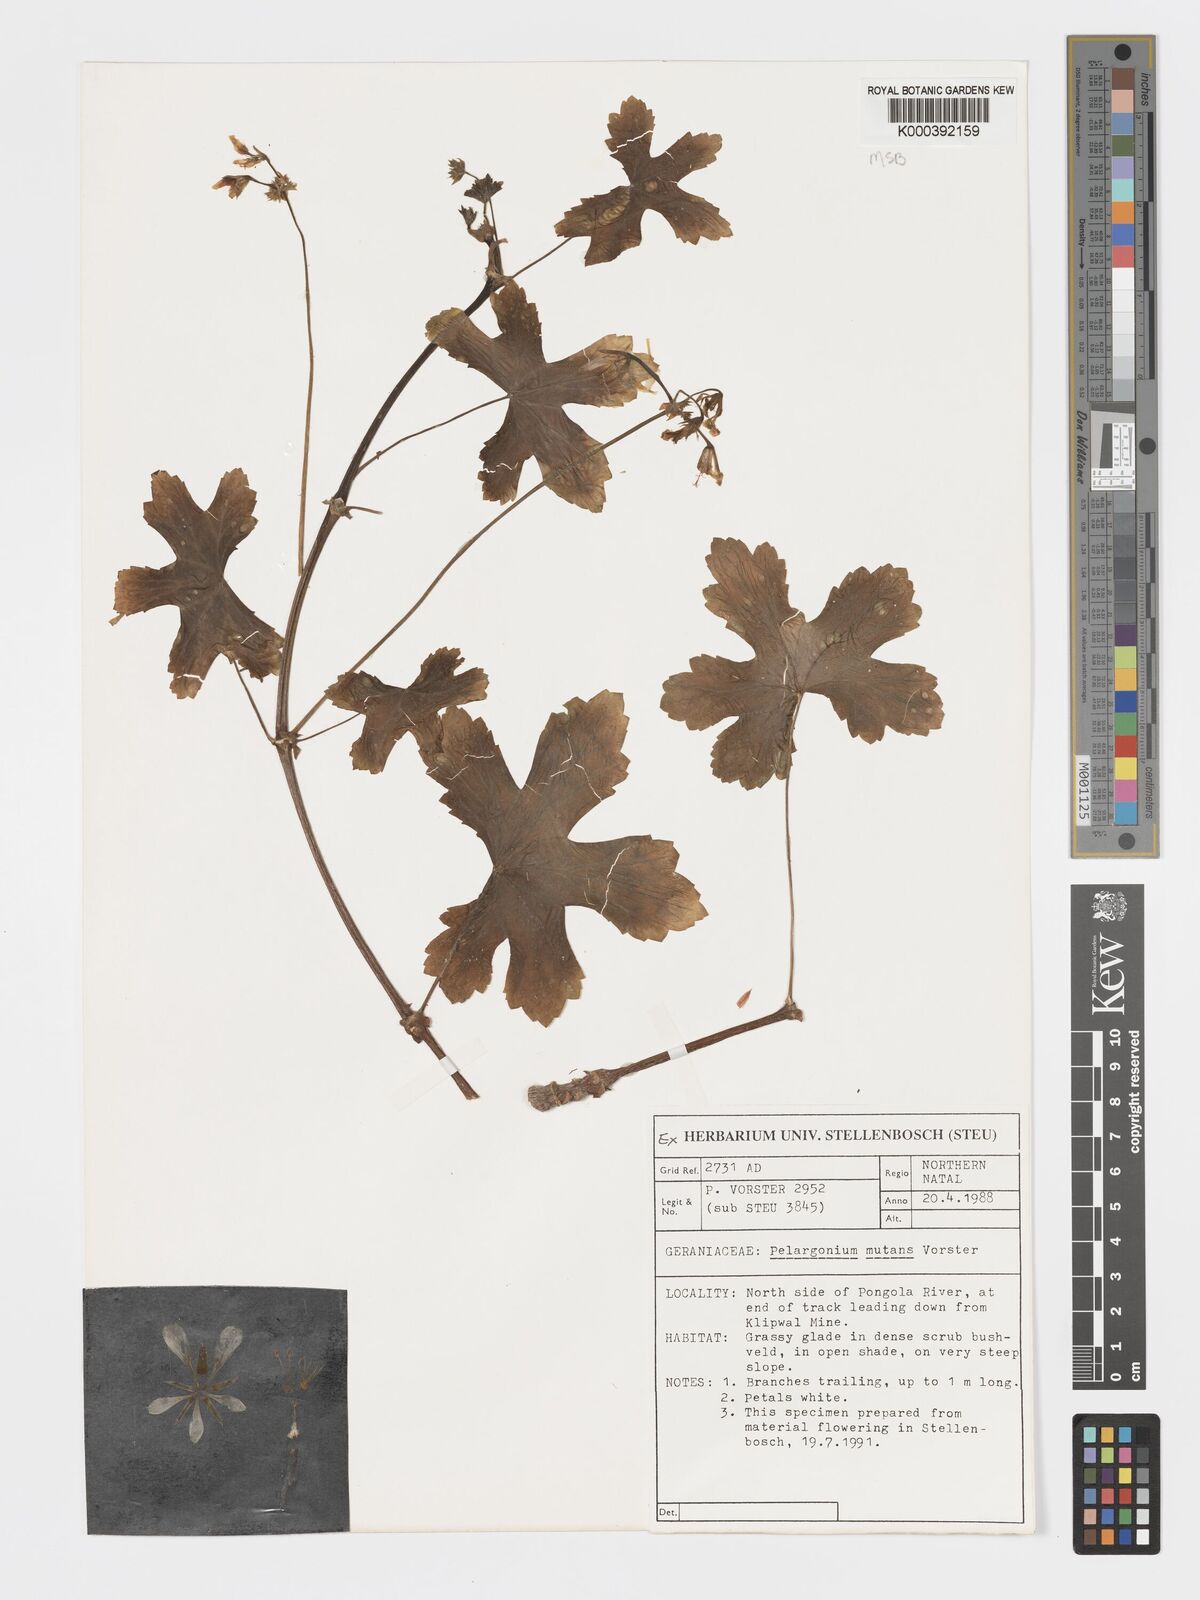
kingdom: Plantae
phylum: Tracheophyta
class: Magnoliopsida
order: Geraniales
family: Geraniaceae
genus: Pelargonium
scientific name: Pelargonium mutans
